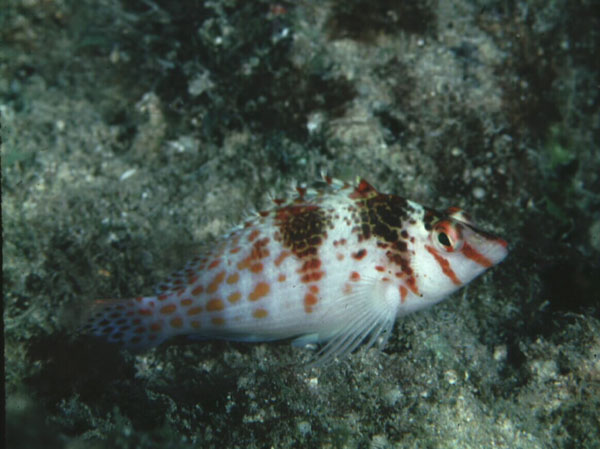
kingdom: Animalia
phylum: Chordata
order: Perciformes
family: Cirrhitidae
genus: Cirrhitichthys
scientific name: Cirrhitichthys falco
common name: Coral hawkfish
